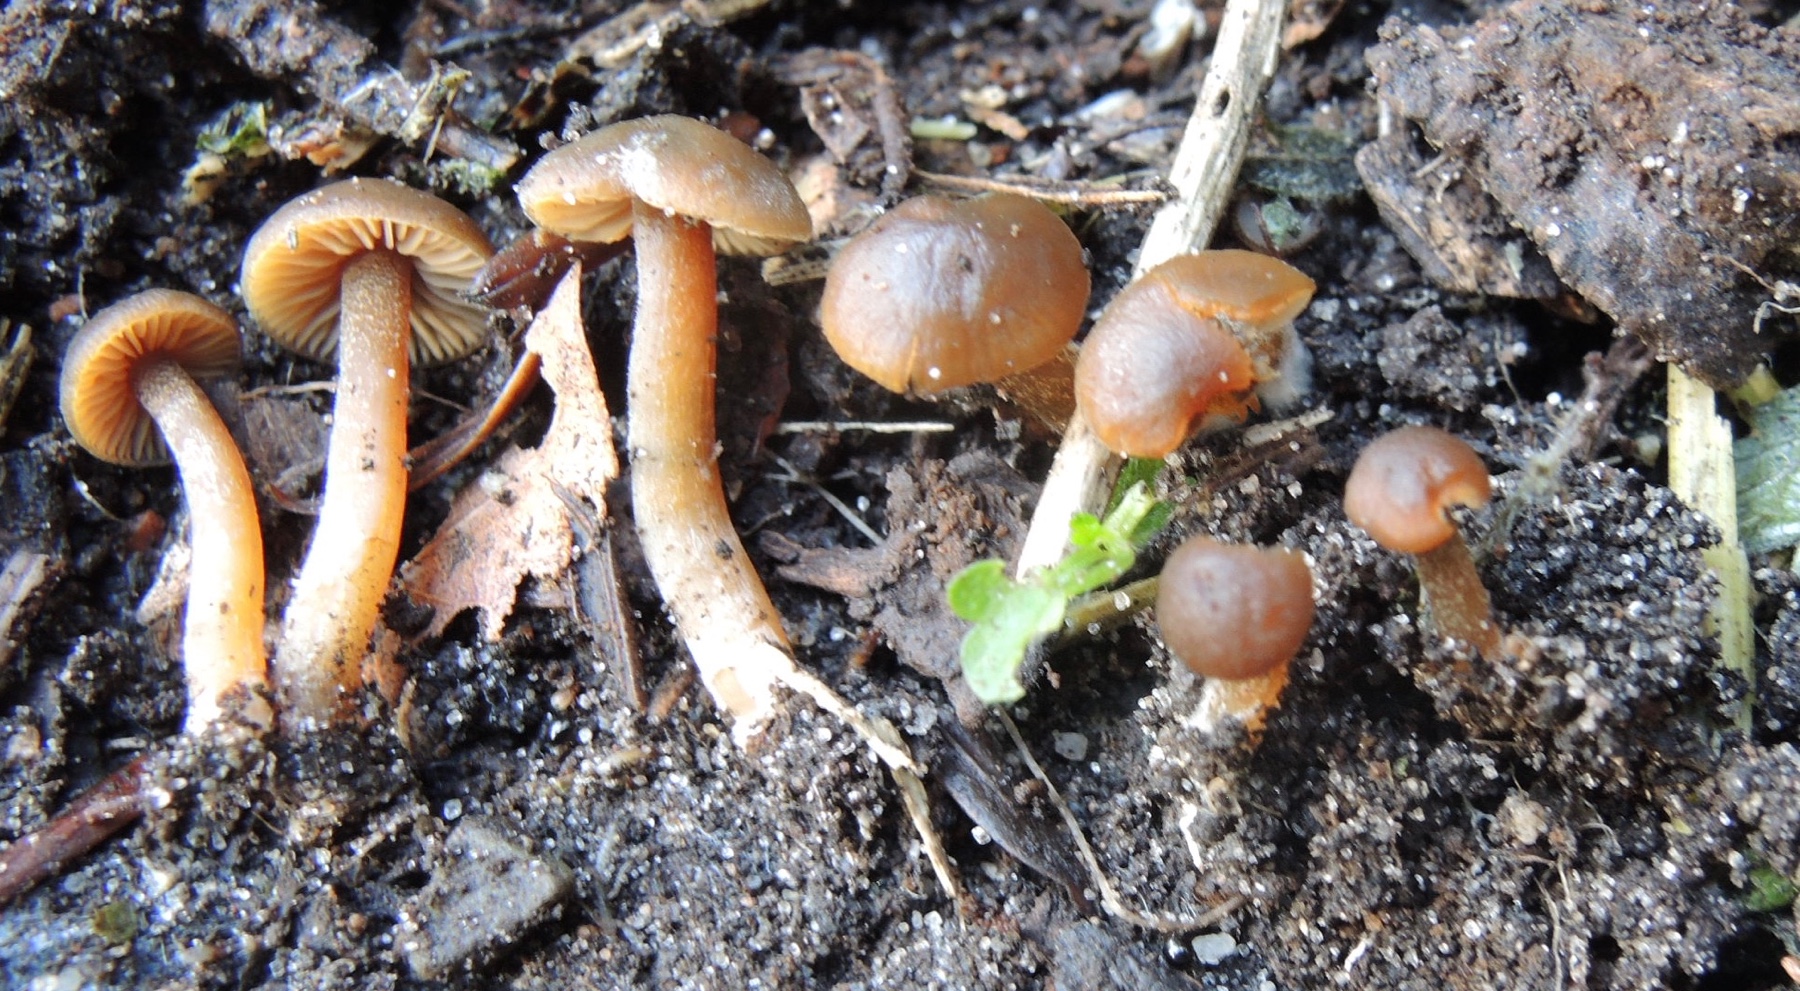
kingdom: Fungi
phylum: Basidiomycota
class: Agaricomycetes
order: Agaricales
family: Entolomataceae
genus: Rhodophana
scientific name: Rhodophana
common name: troldhat
